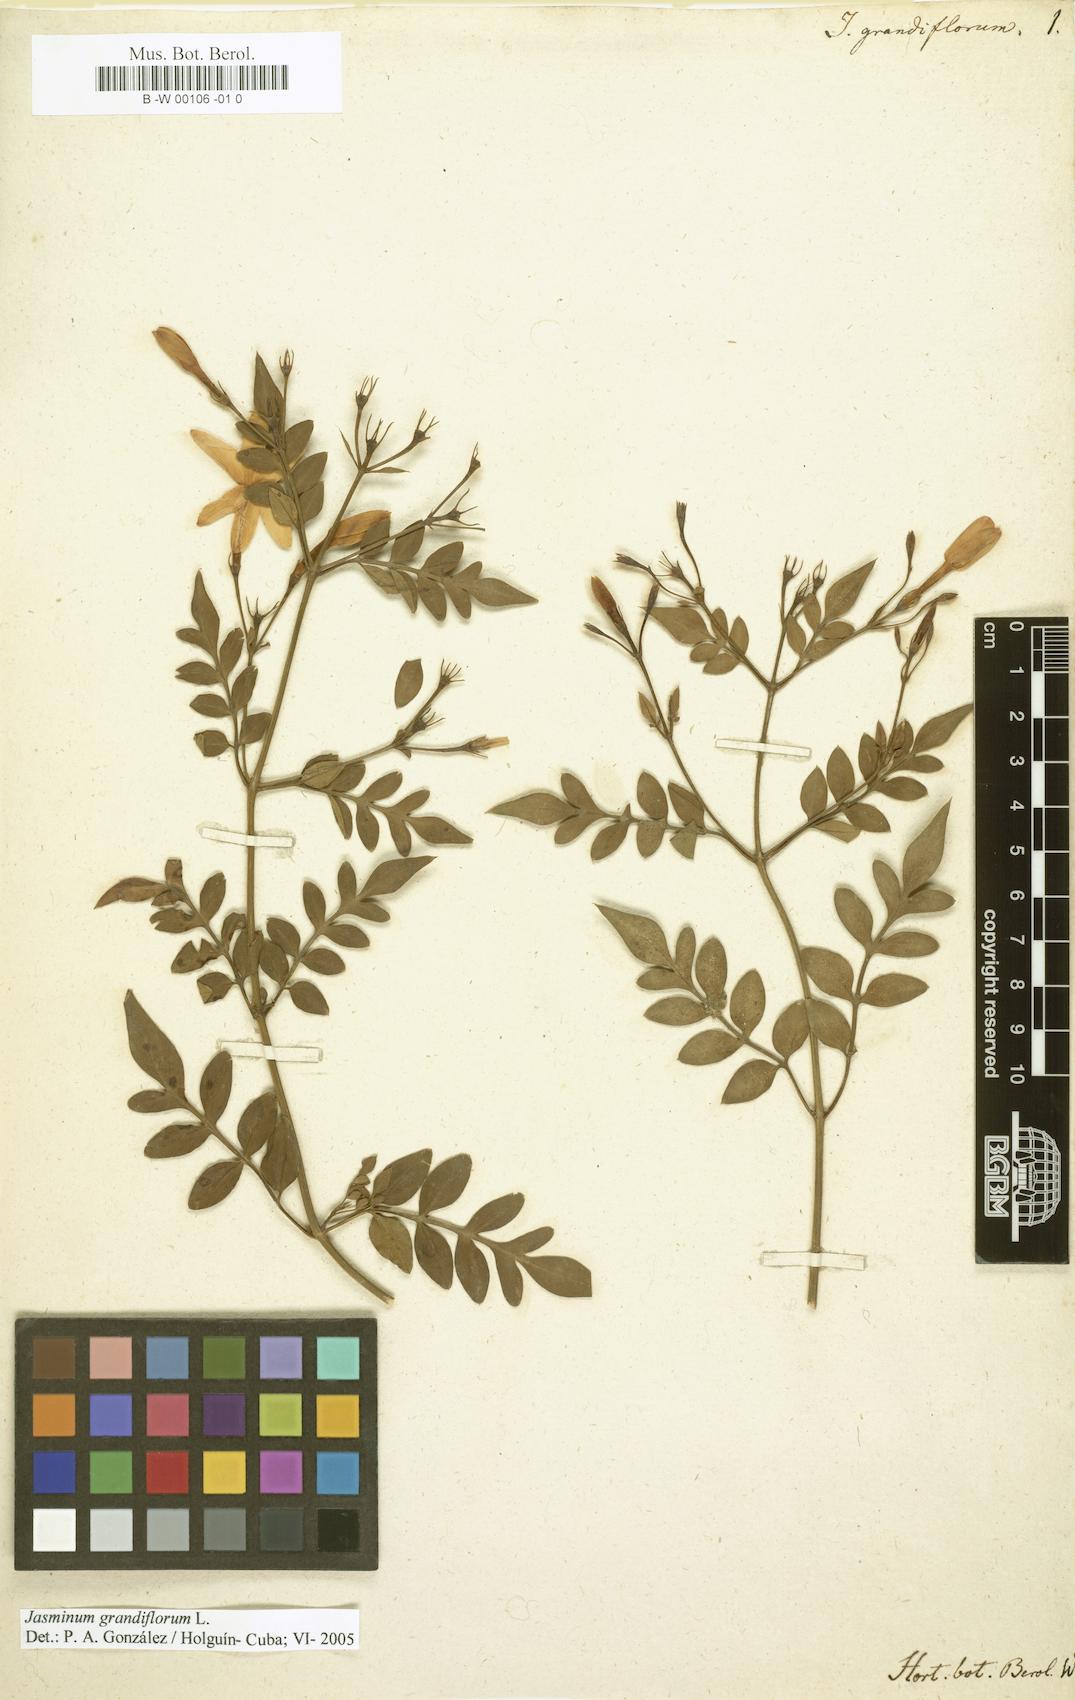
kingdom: Plantae
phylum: Tracheophyta
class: Magnoliopsida
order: Lamiales
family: Oleaceae
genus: Jasminum
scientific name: Jasminum grandiflorum
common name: Catalonian jasmine
